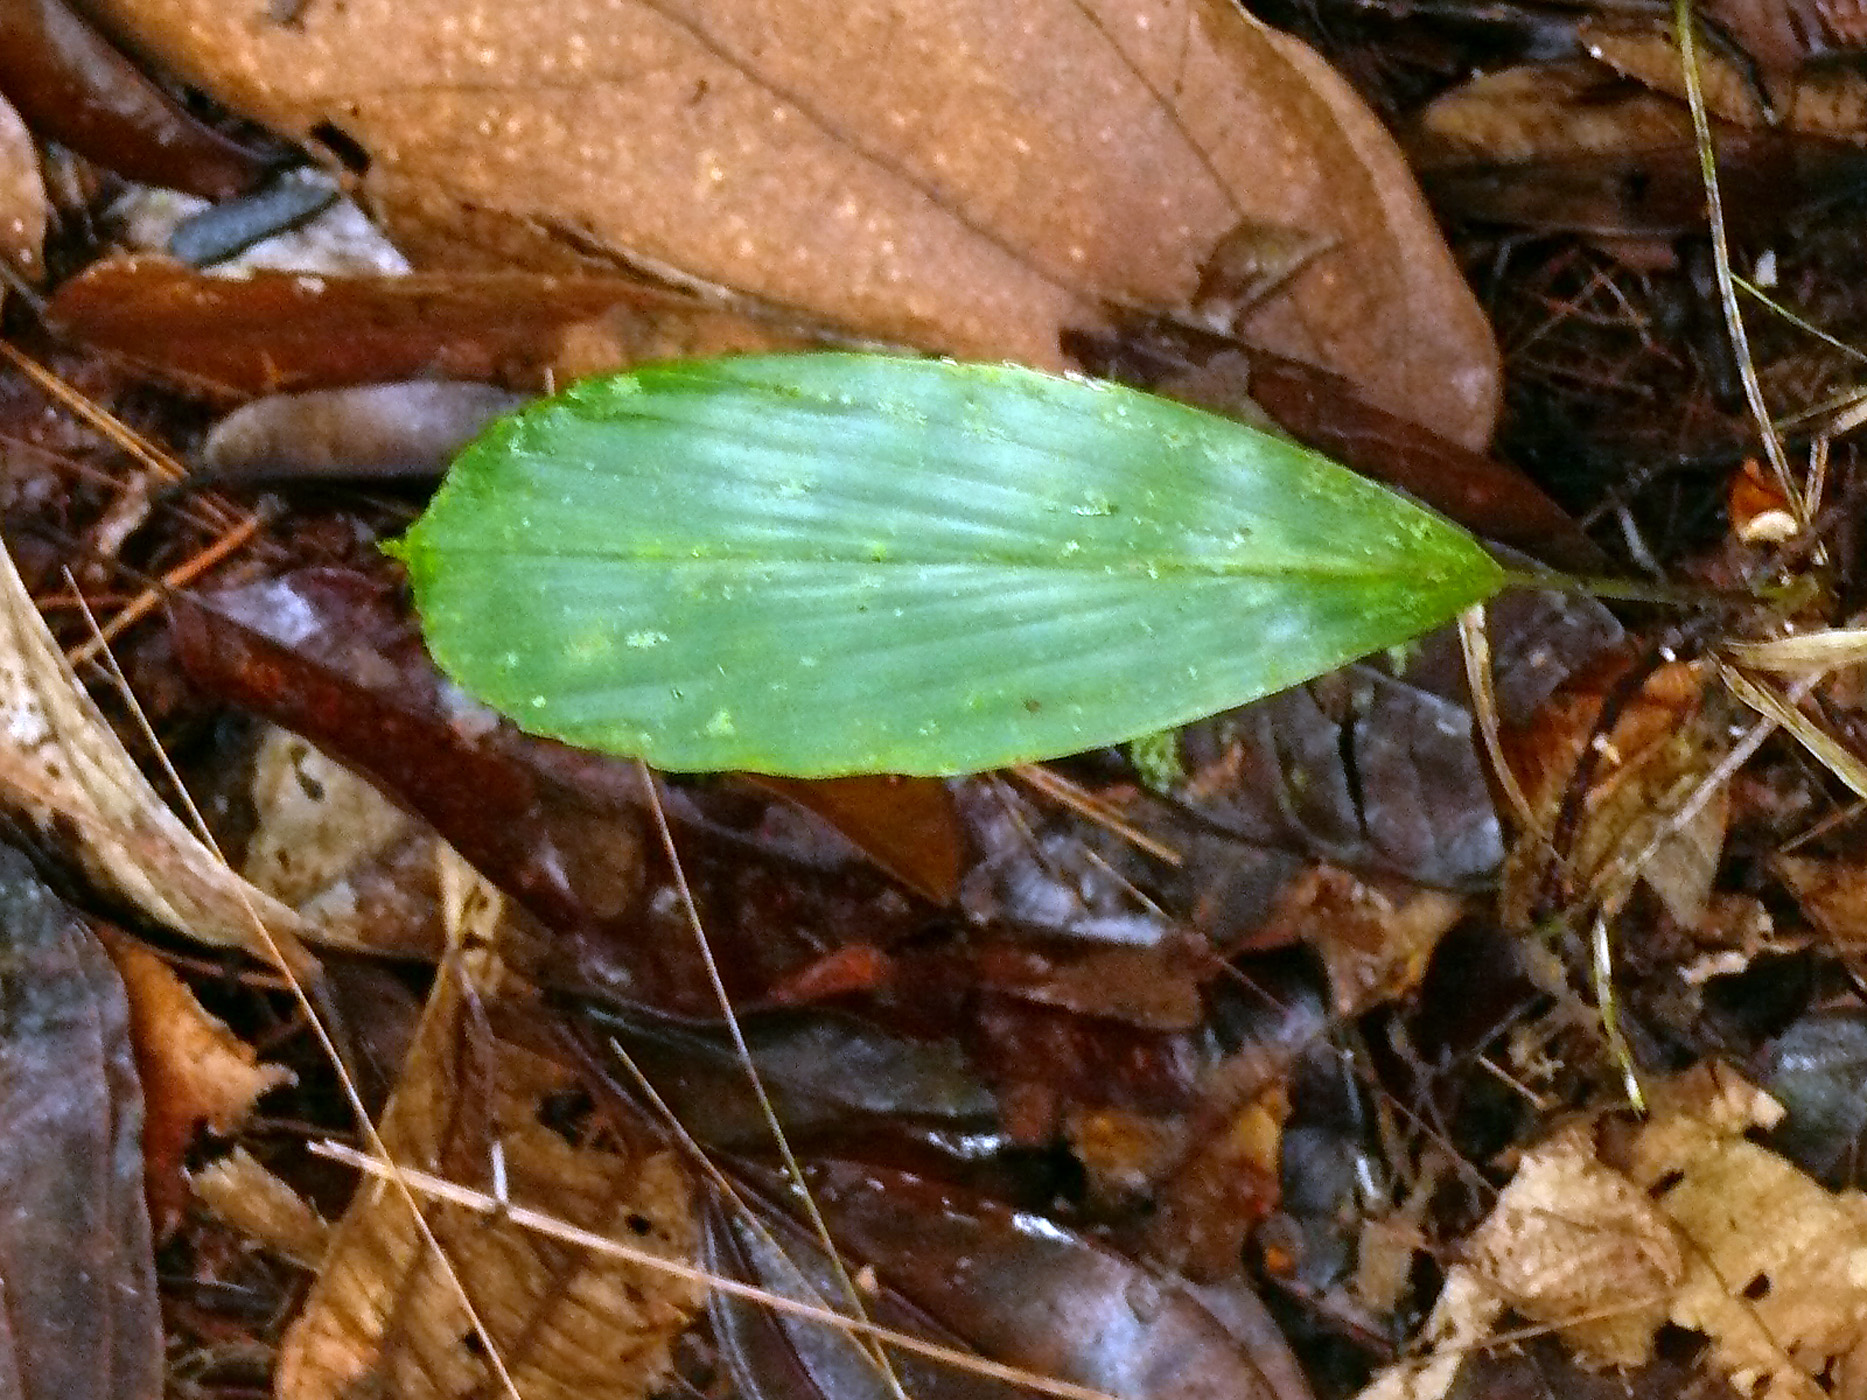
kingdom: Plantae
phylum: Tracheophyta
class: Liliopsida
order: Arecales
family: Arecaceae
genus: Wettinia
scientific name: Wettinia radiata
